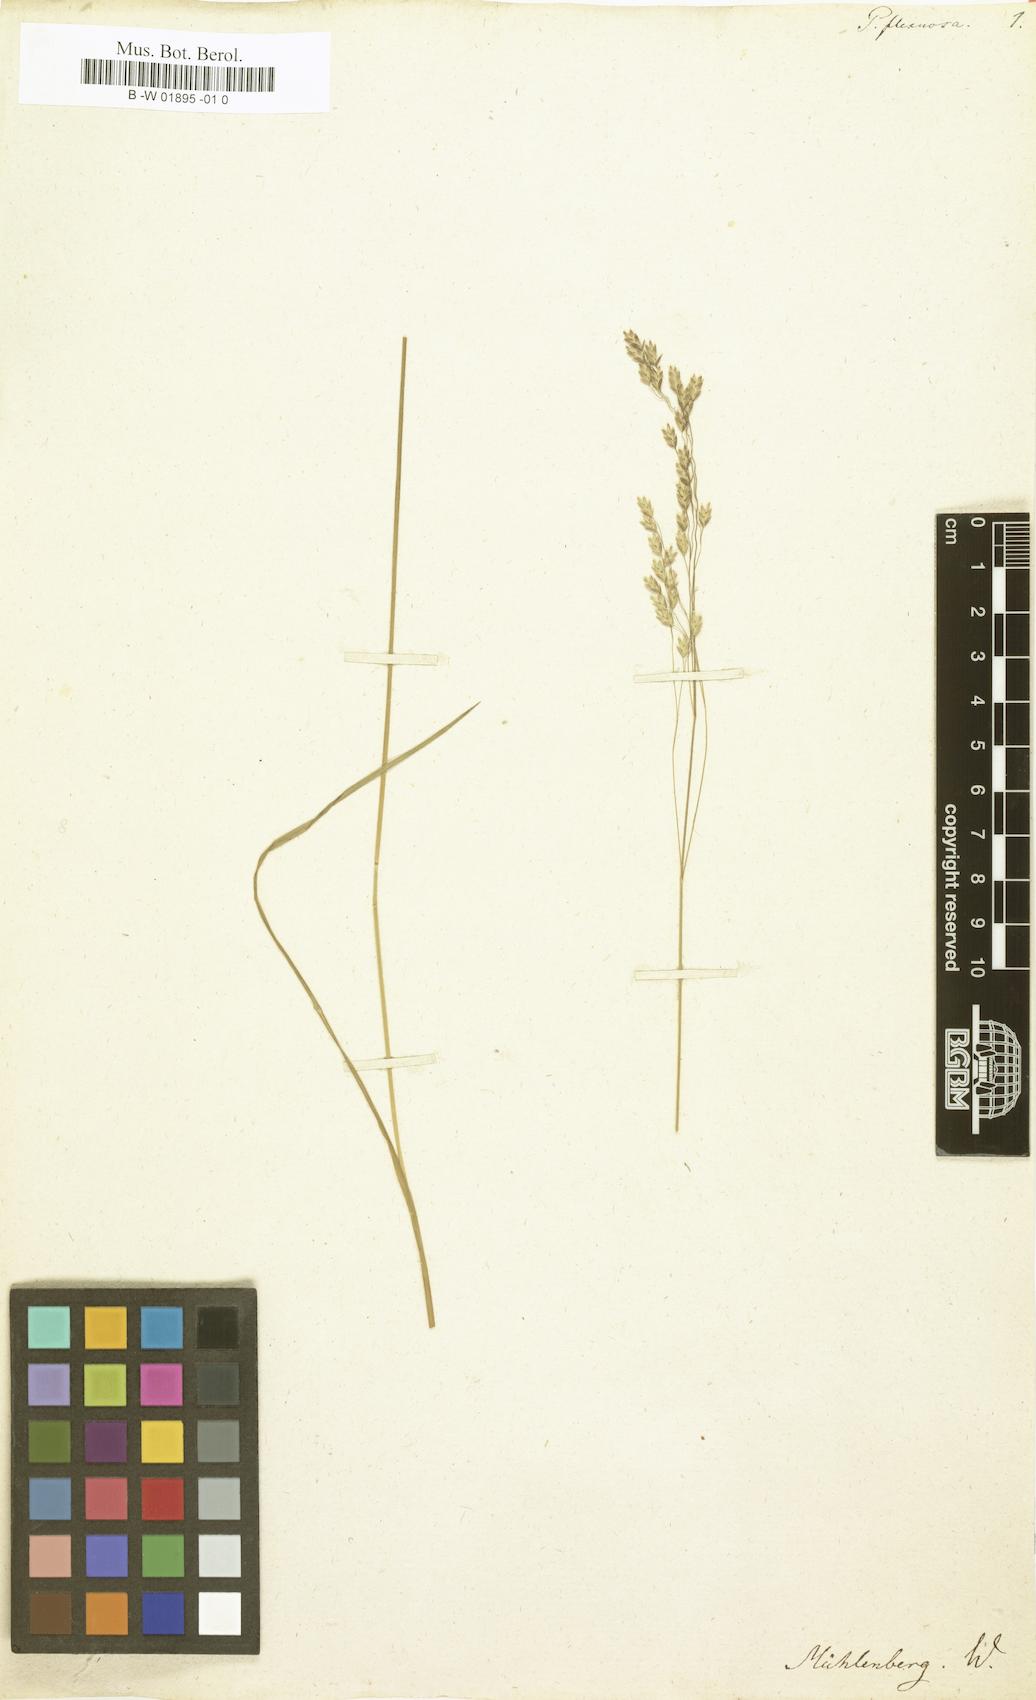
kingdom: Plantae
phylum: Tracheophyta
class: Liliopsida
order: Poales
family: Poaceae
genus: Poa
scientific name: Poa flexuosa
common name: Wavy meadow-grass
